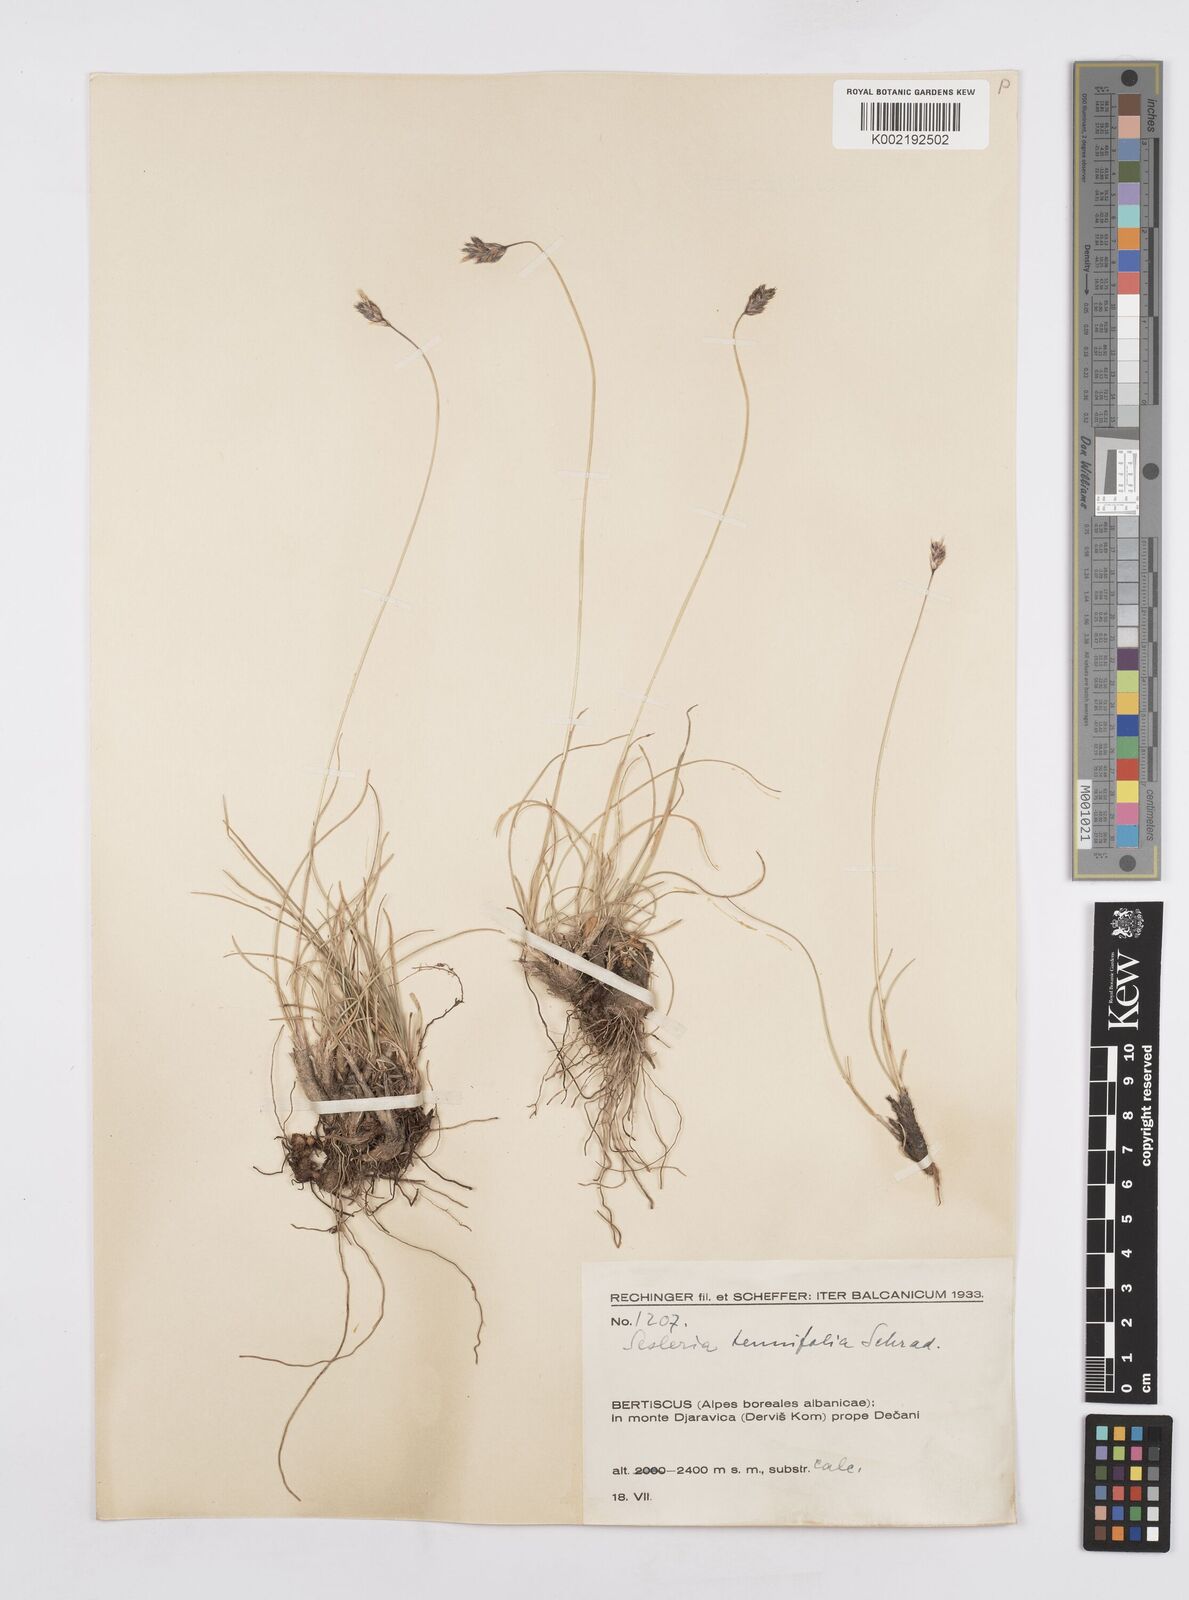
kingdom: Plantae
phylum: Tracheophyta
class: Liliopsida
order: Poales
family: Poaceae
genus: Sesleria
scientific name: Sesleria juncifolia
